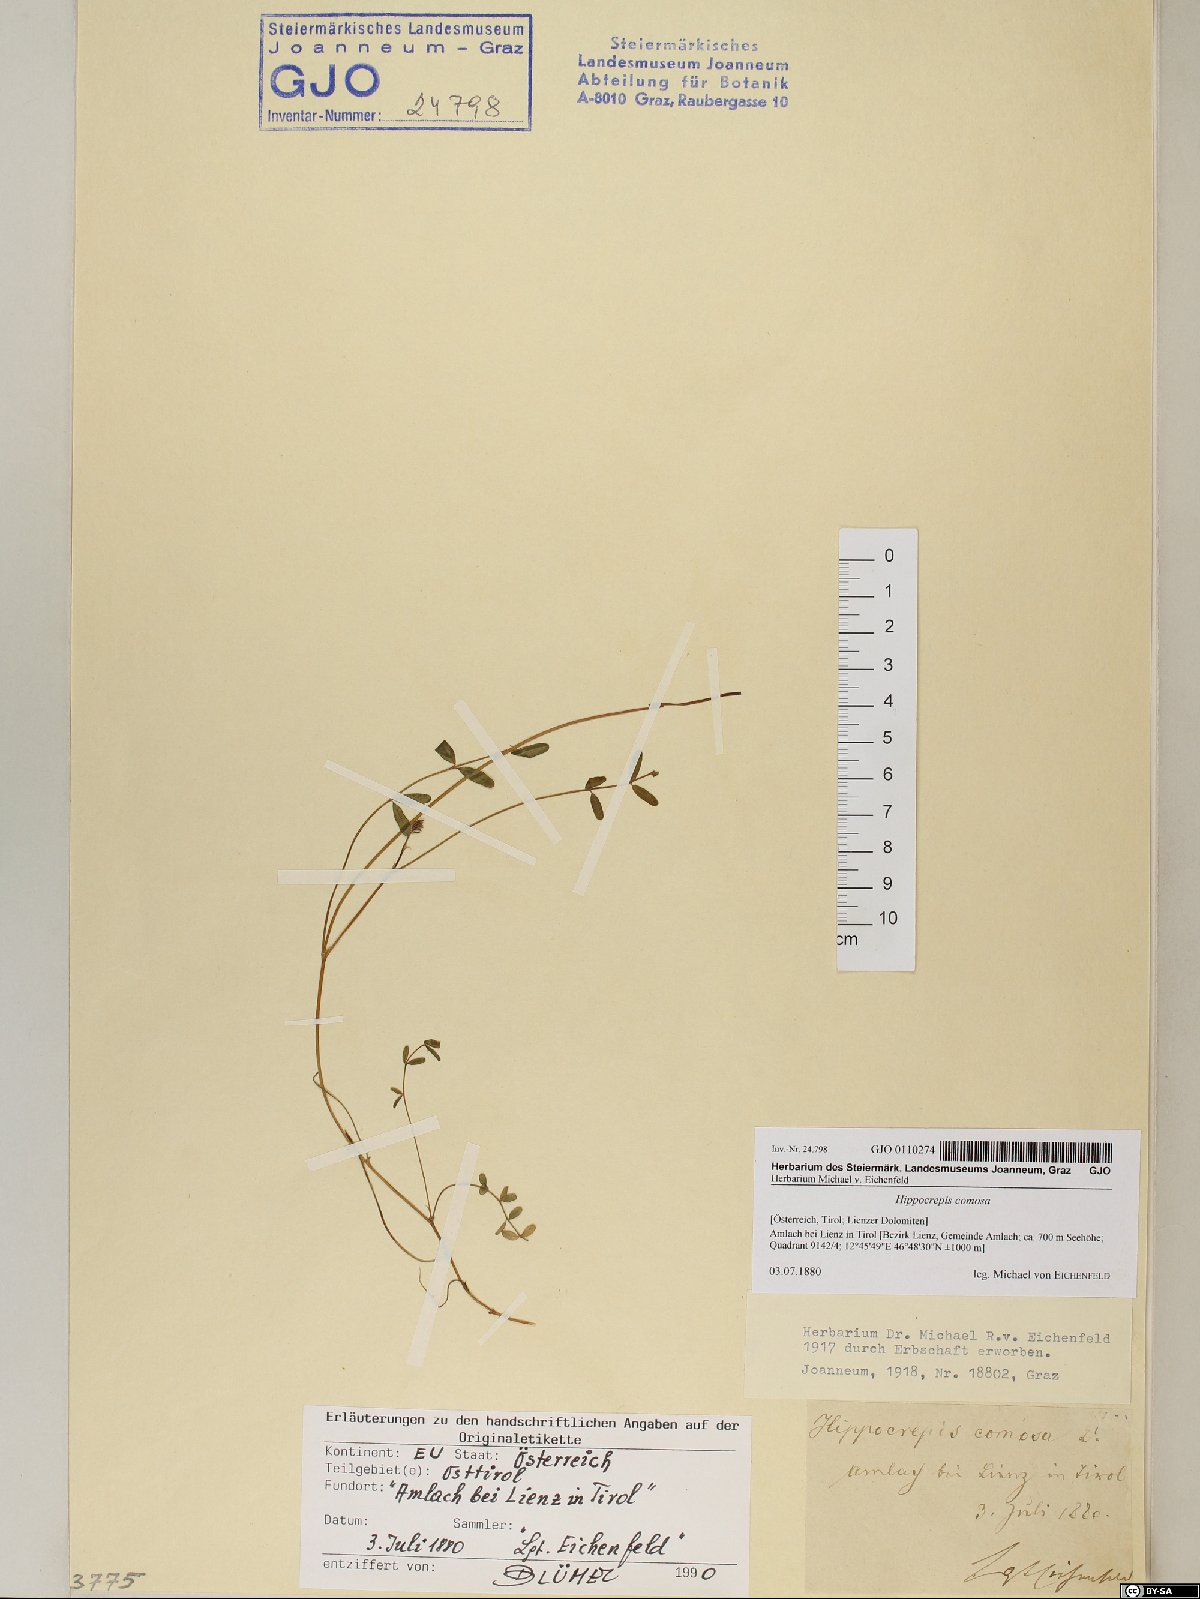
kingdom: Plantae
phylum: Tracheophyta
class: Magnoliopsida
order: Fabales
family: Fabaceae
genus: Hippocrepis
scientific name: Hippocrepis comosa
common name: Horseshoe vetch
